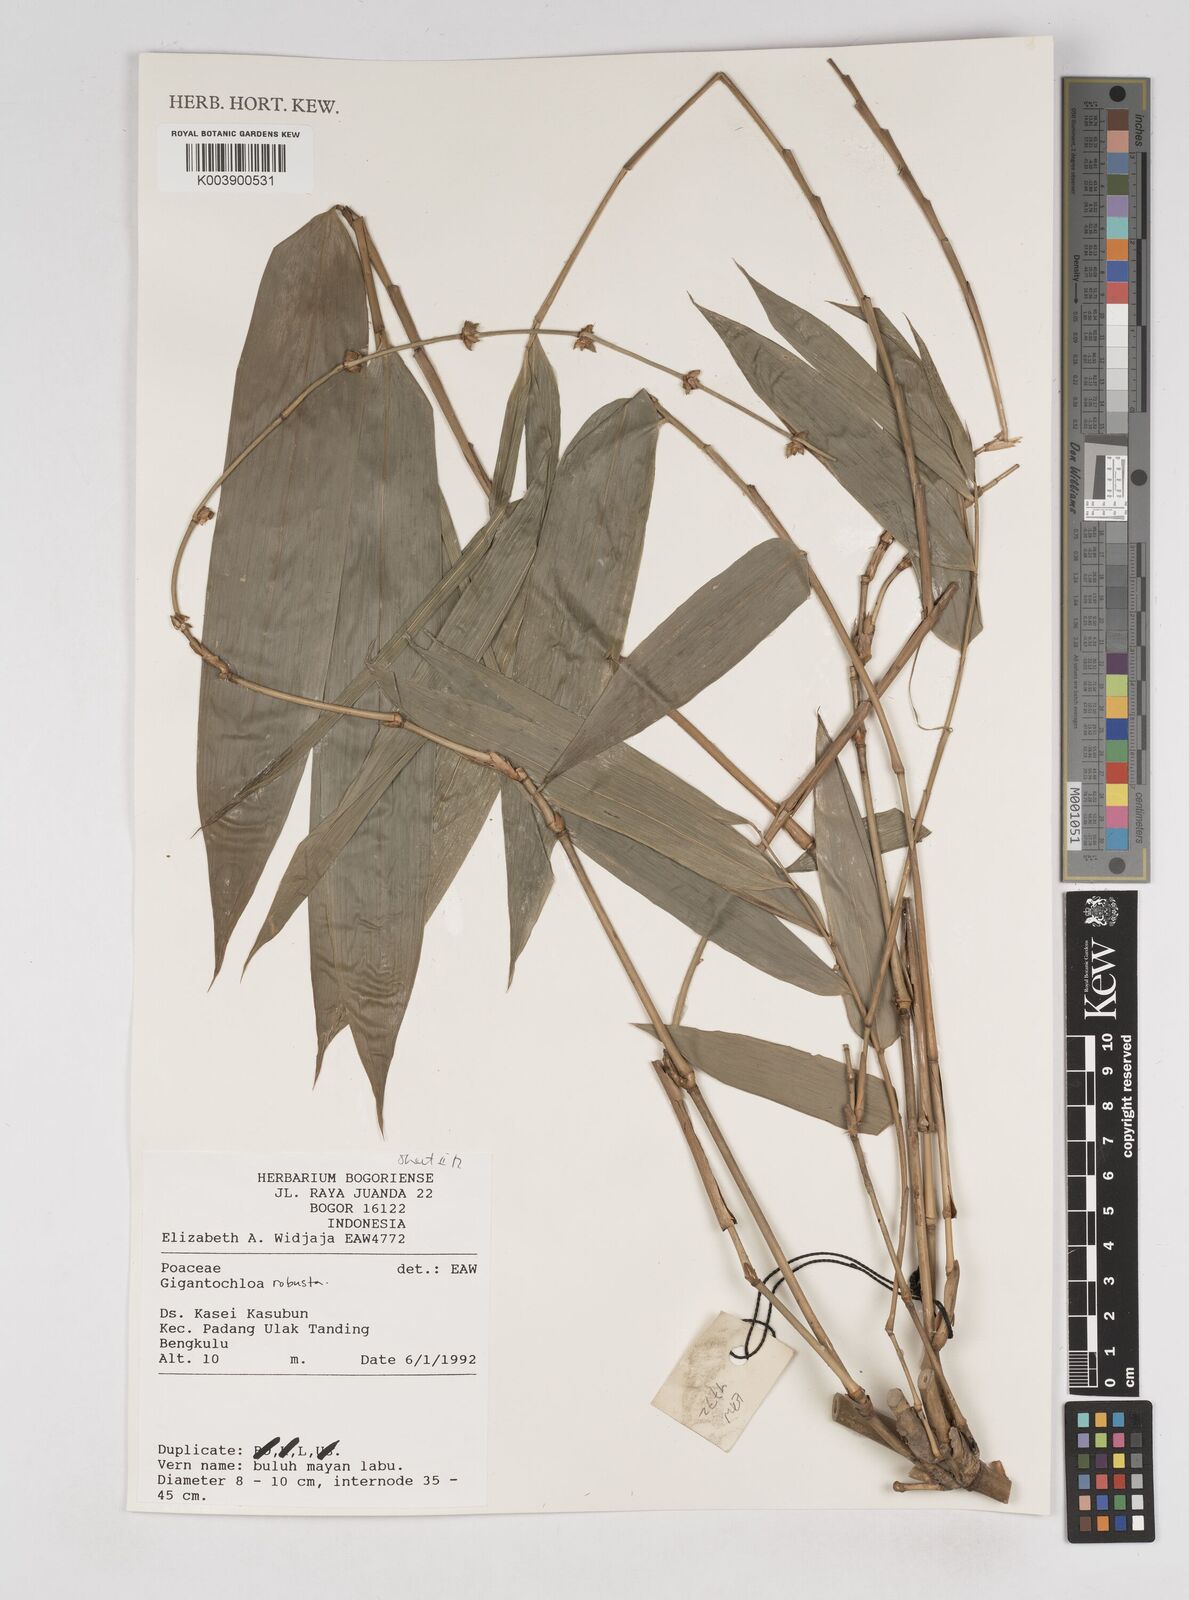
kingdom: Plantae
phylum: Tracheophyta
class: Liliopsida
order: Poales
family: Poaceae
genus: Gigantochloa
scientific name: Gigantochloa robusta
